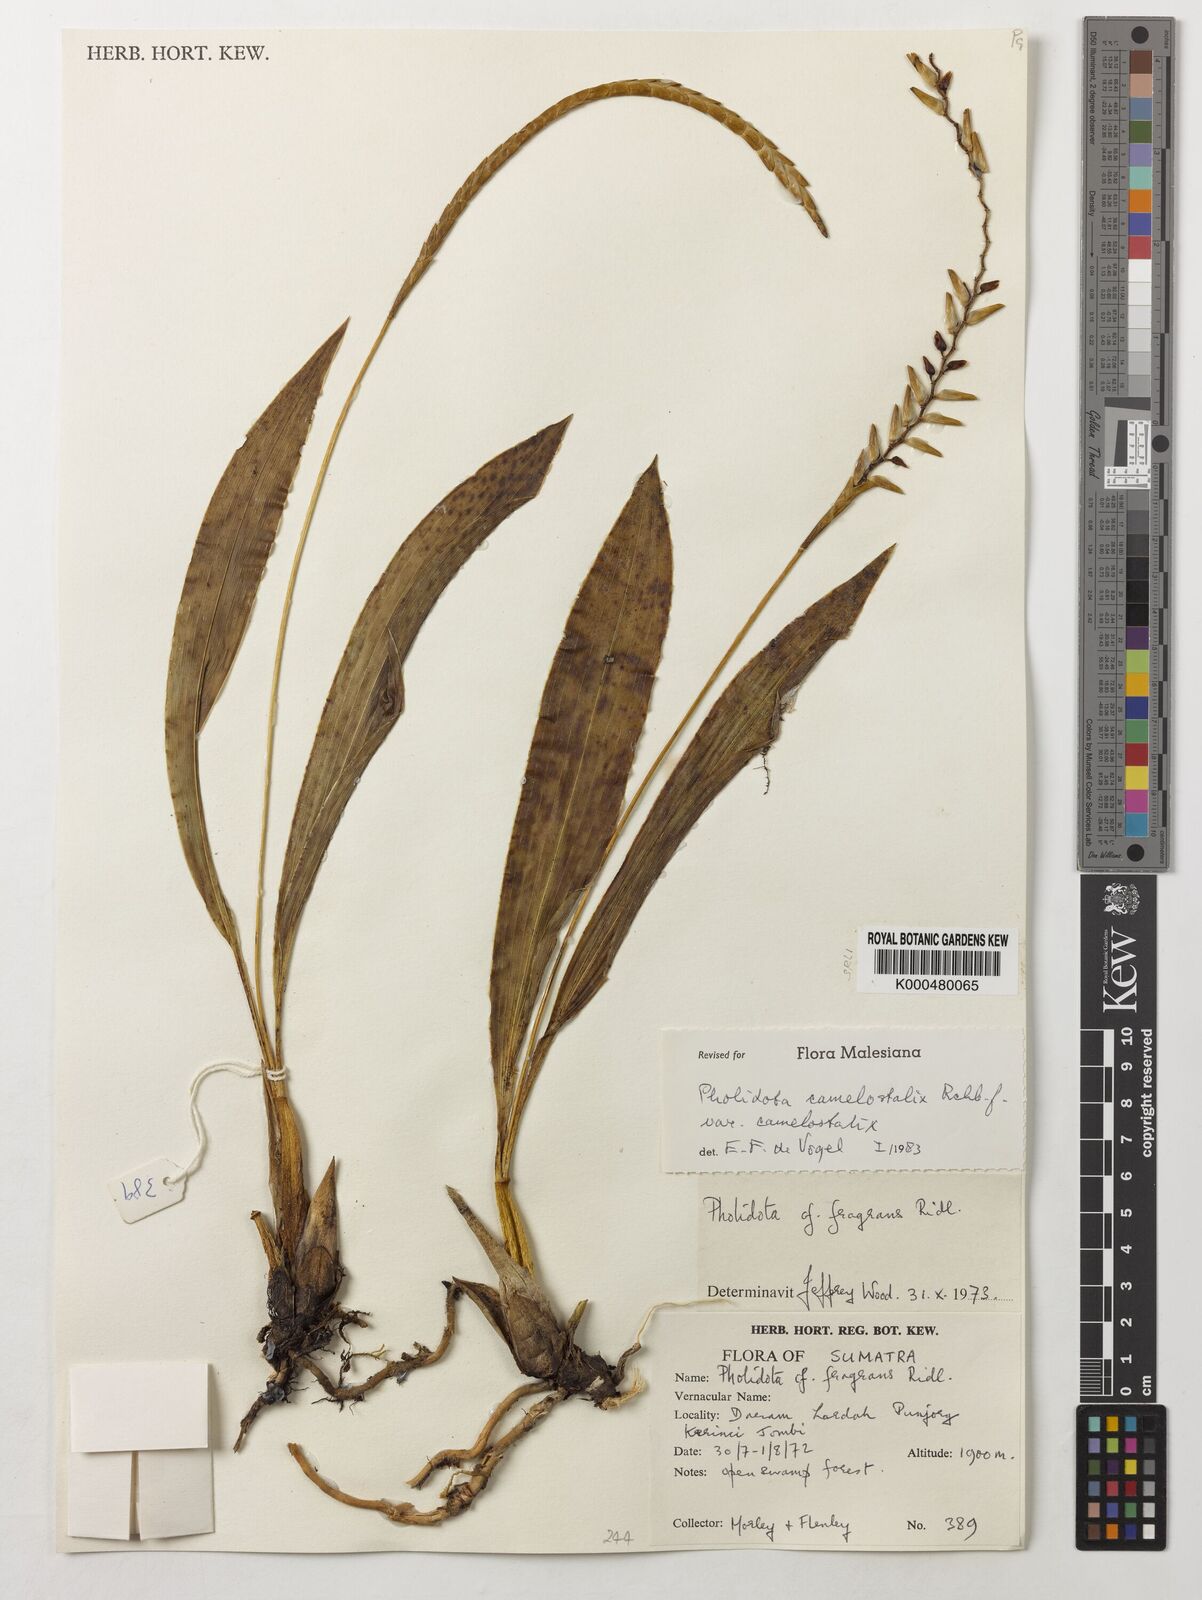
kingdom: Plantae
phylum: Tracheophyta
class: Liliopsida
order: Asparagales
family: Orchidaceae
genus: Coelogyne
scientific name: Coelogyne camelostalix
